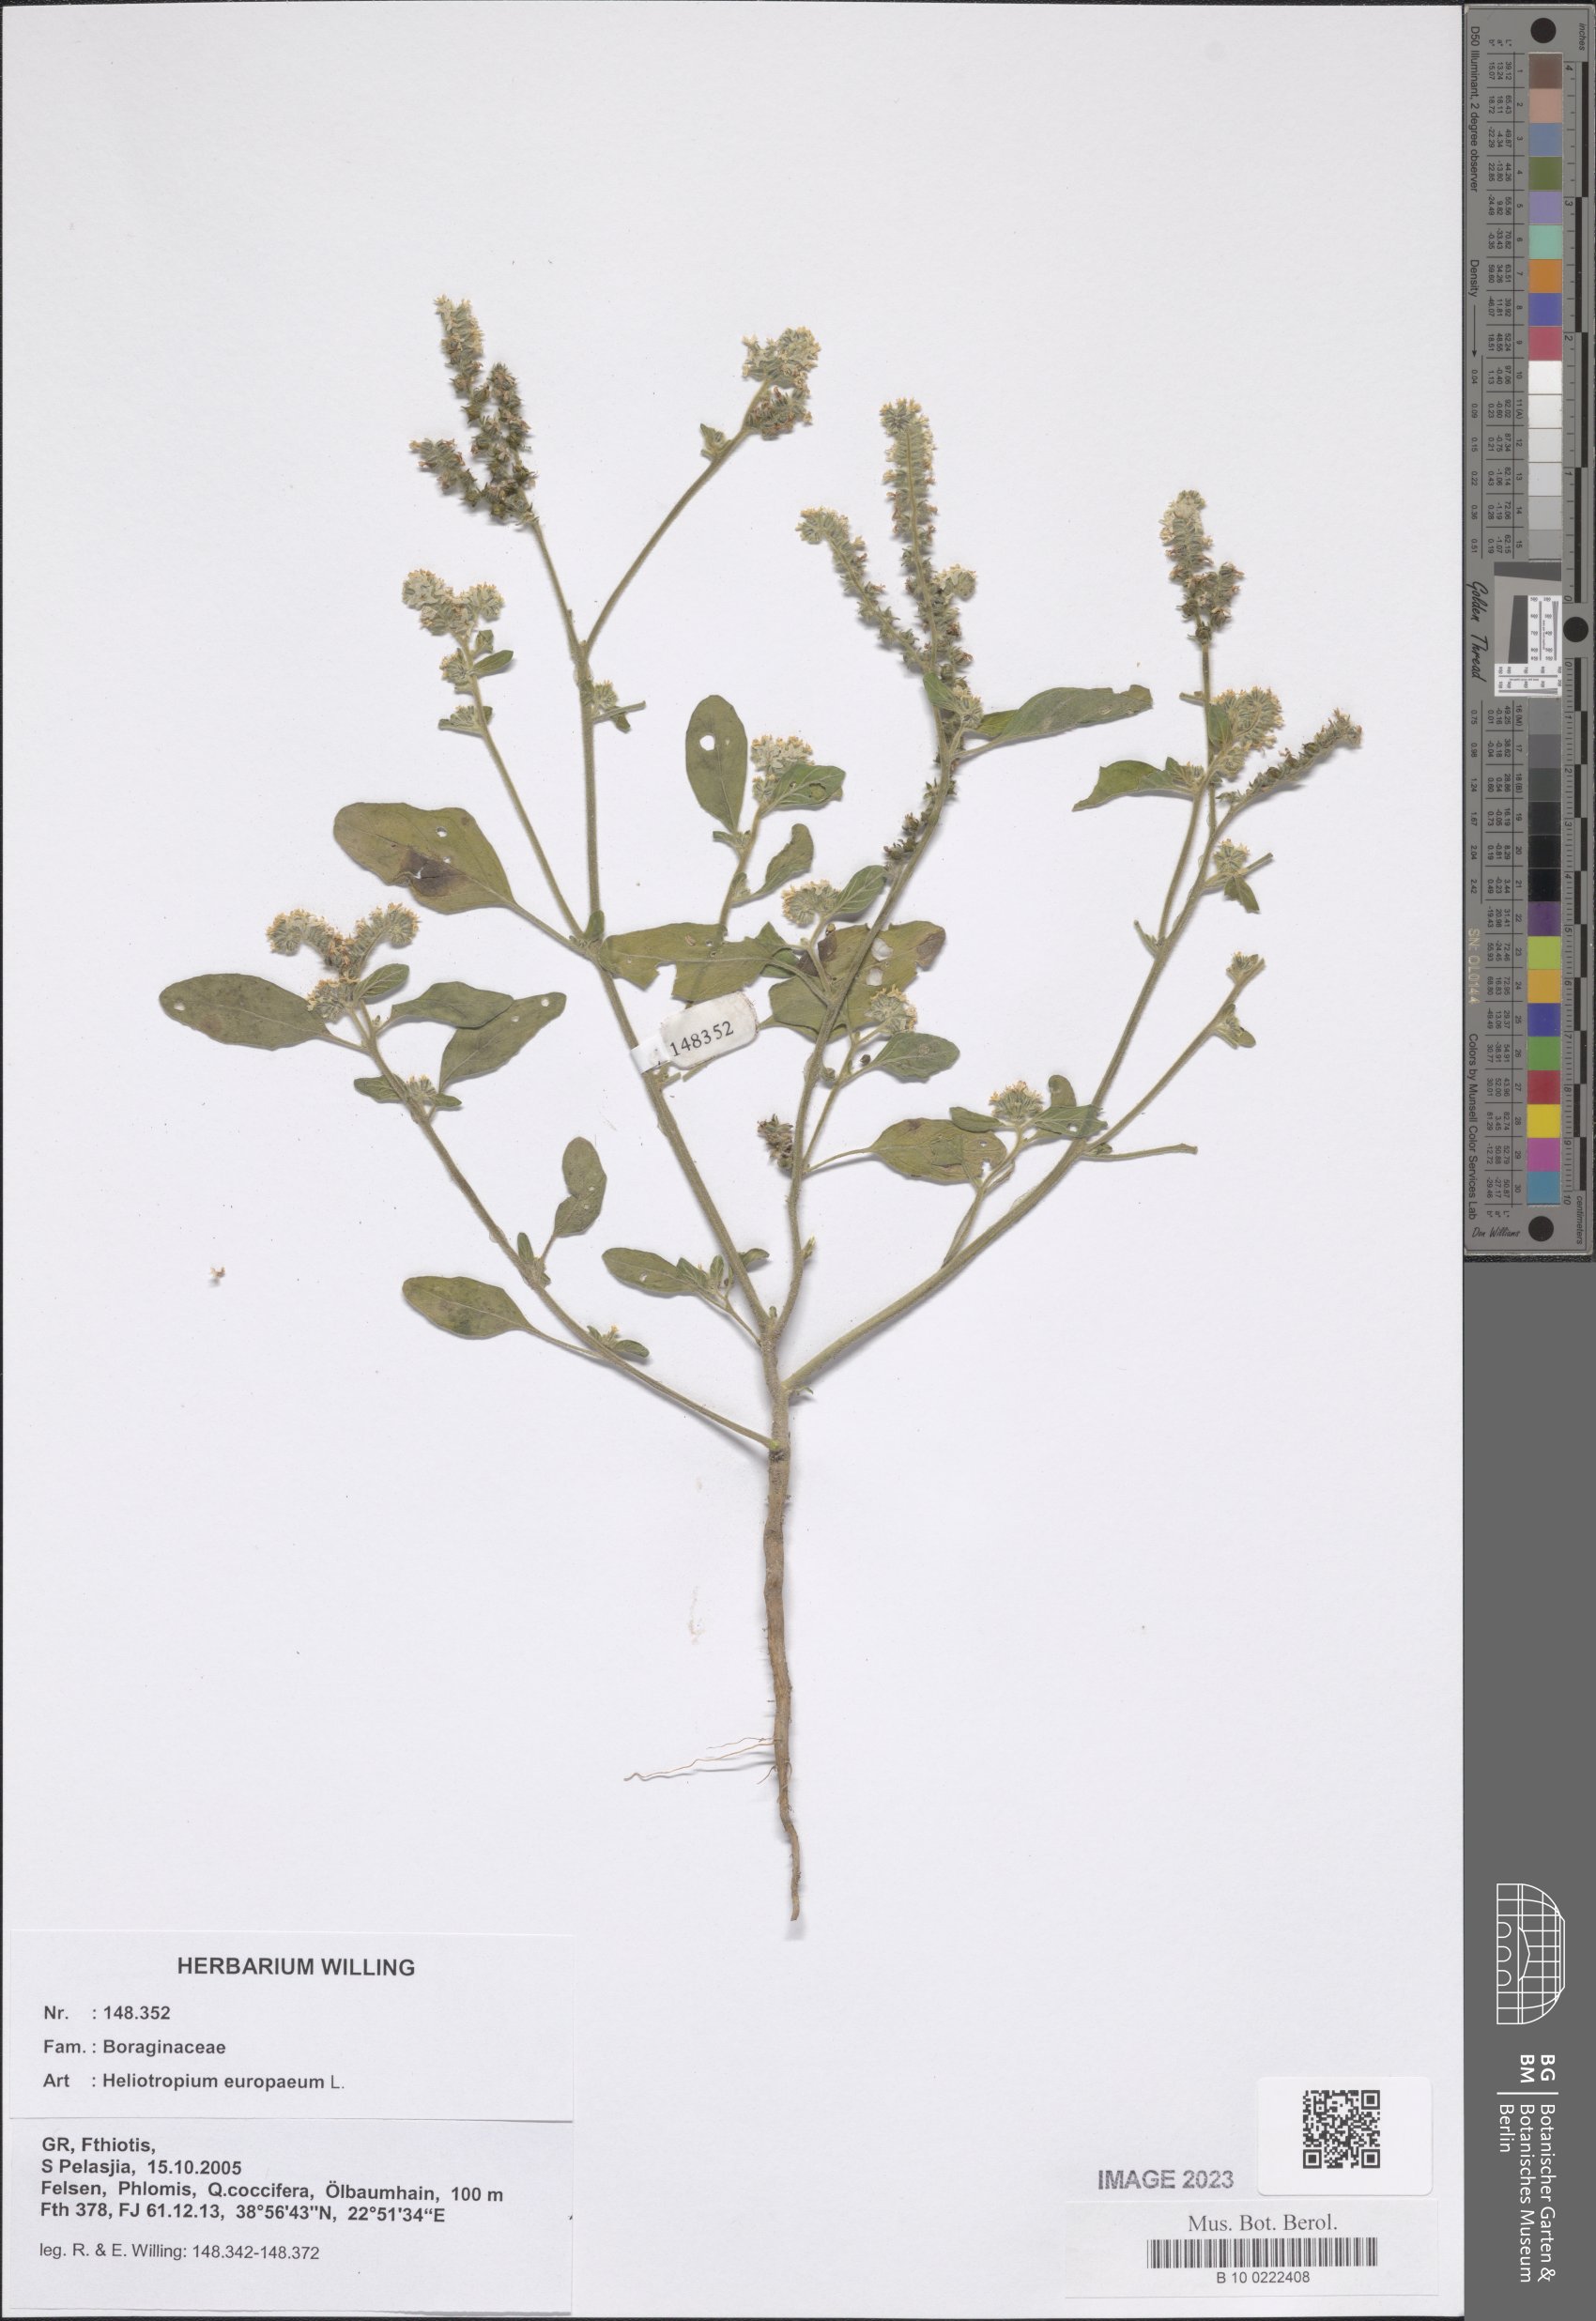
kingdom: Plantae
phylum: Tracheophyta
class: Magnoliopsida
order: Boraginales
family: Heliotropiaceae
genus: Heliotropium
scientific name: Heliotropium europaeum
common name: European heliotrope
